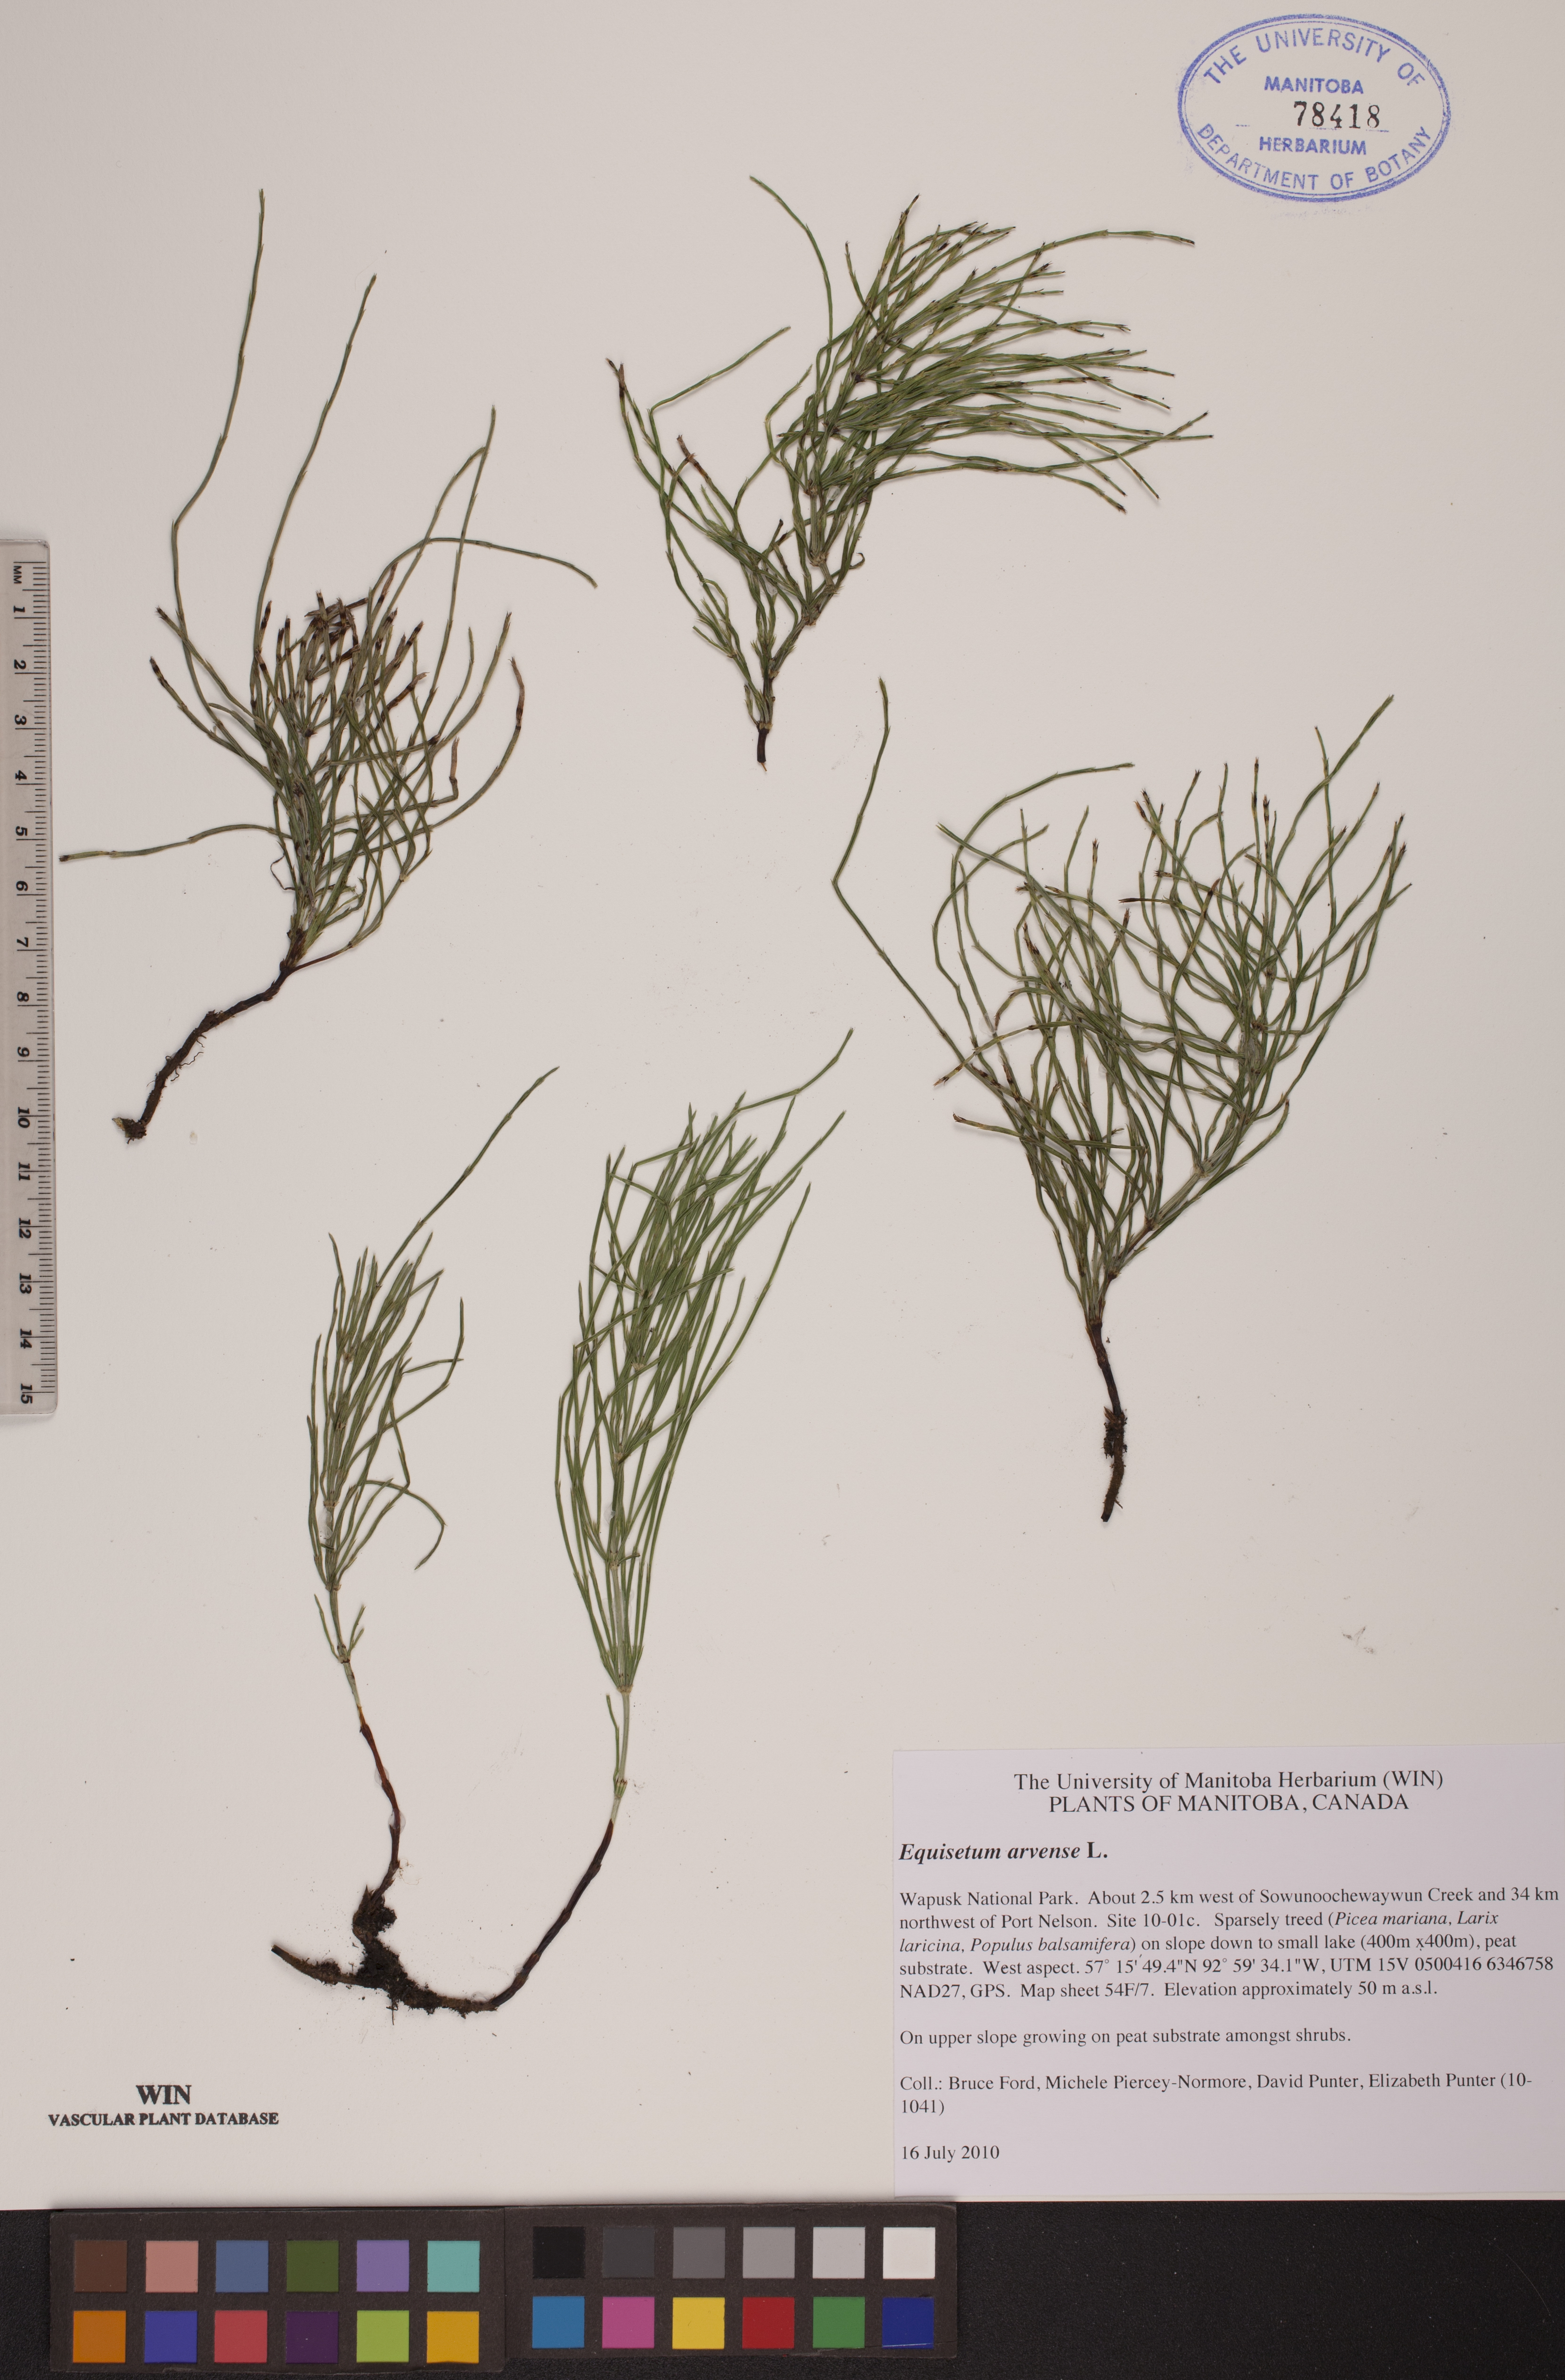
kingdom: Plantae
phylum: Tracheophyta
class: Polypodiopsida
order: Equisetales
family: Equisetaceae
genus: Equisetum
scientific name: Equisetum arvense
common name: Field horsetail
